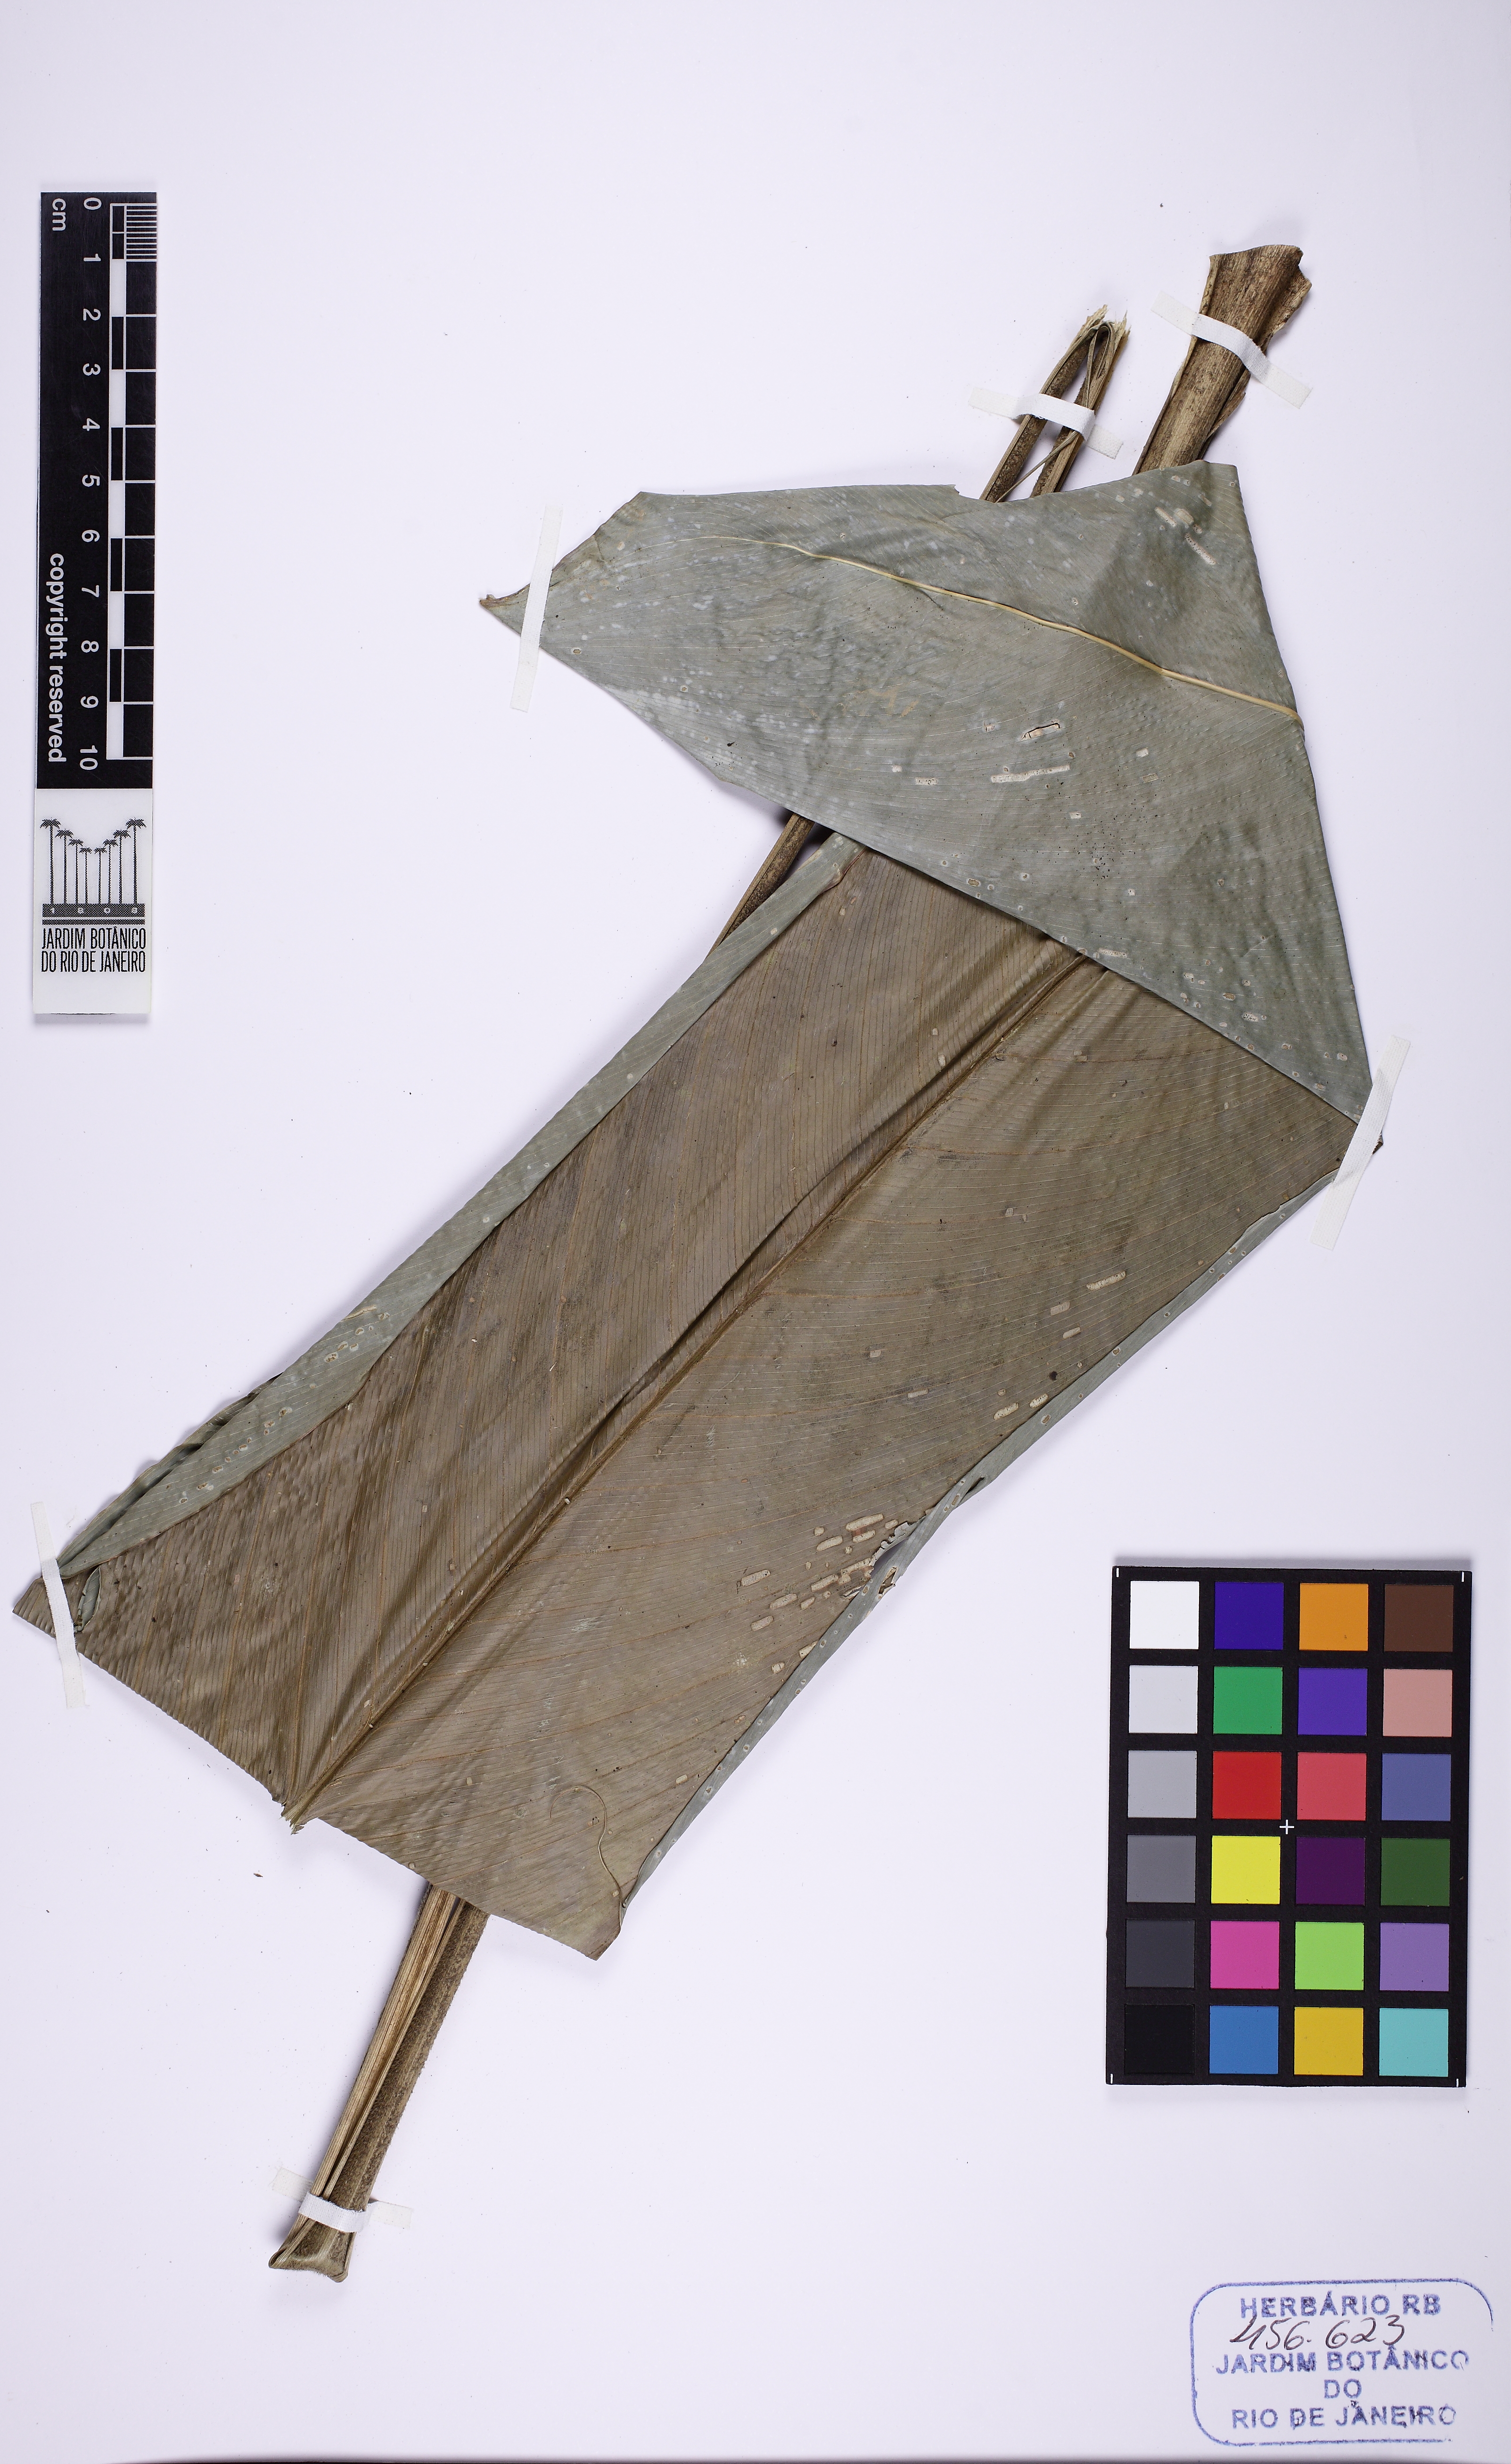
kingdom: Plantae
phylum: Tracheophyta
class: Liliopsida
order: Zingiberales
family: Marantaceae
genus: Monotagma
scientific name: Monotagma
